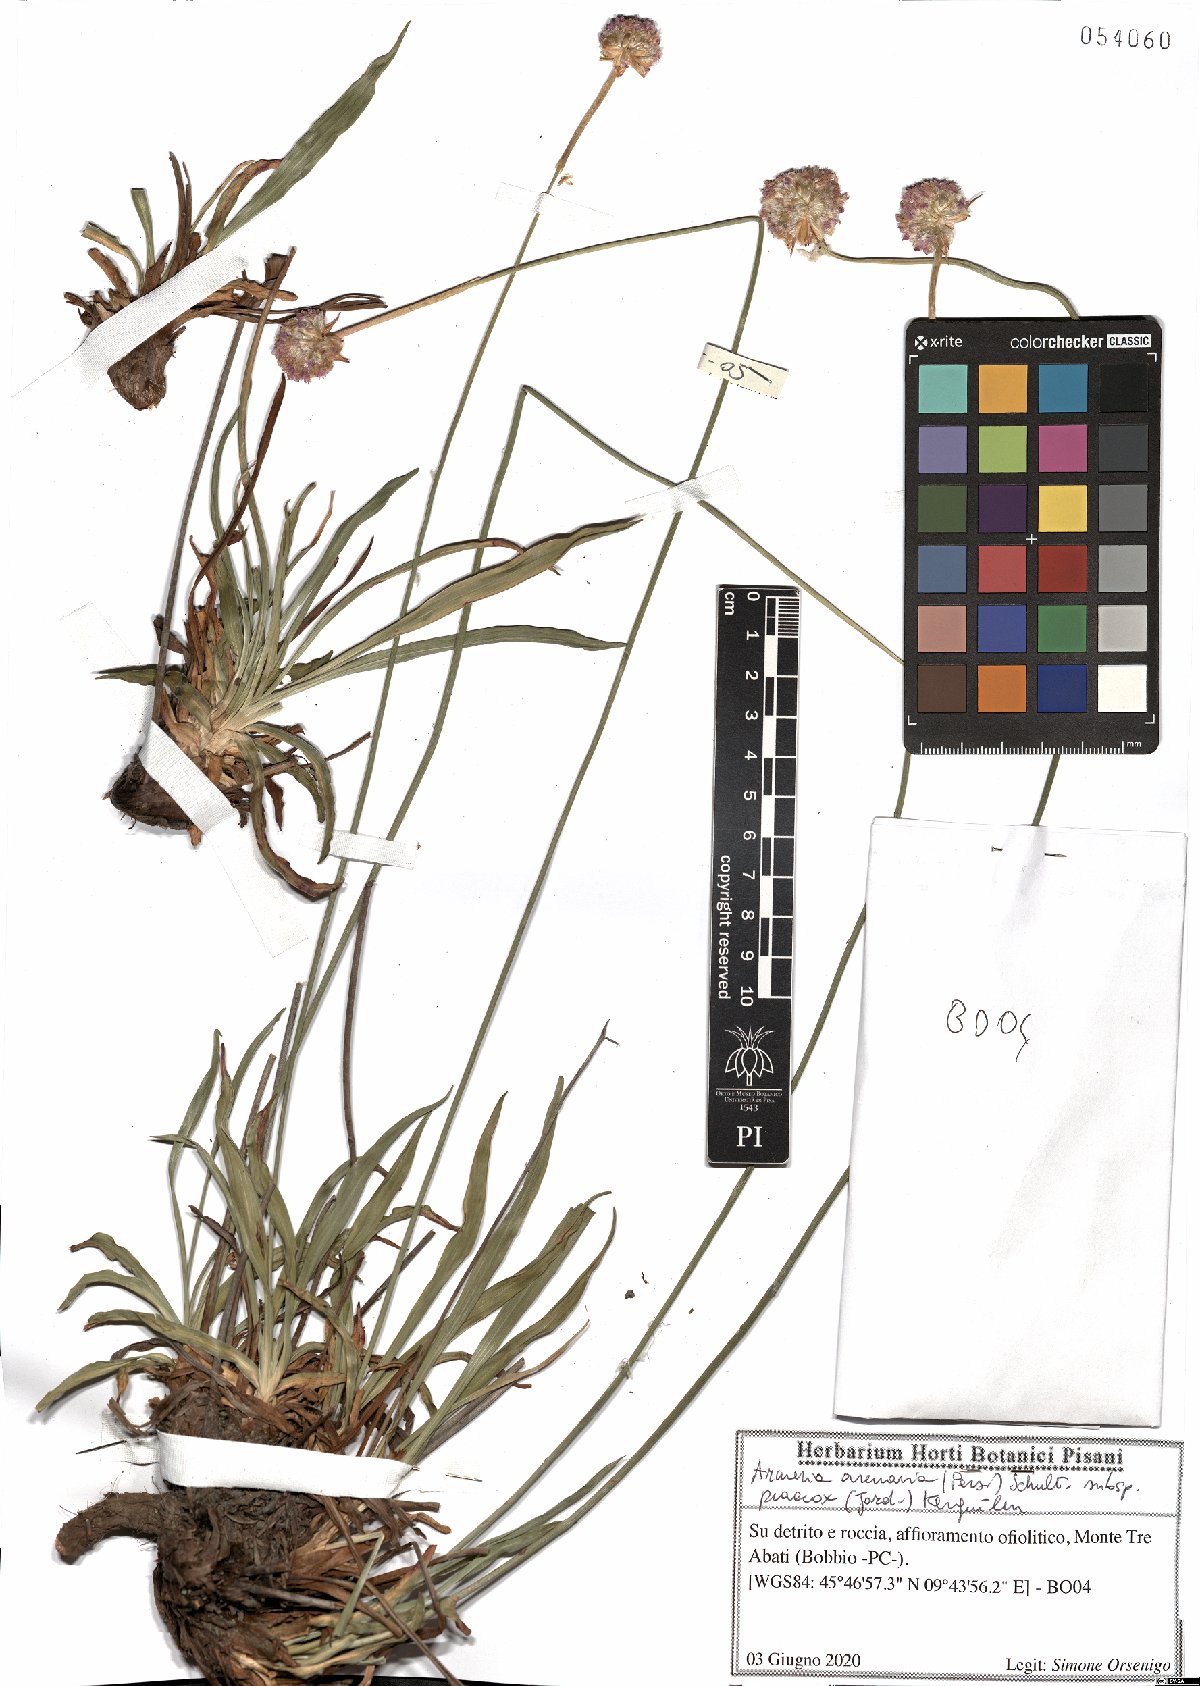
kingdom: Plantae
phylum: Tracheophyta
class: Magnoliopsida
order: Caryophyllales
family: Plumbaginaceae
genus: Armeria
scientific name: Armeria arenaria
